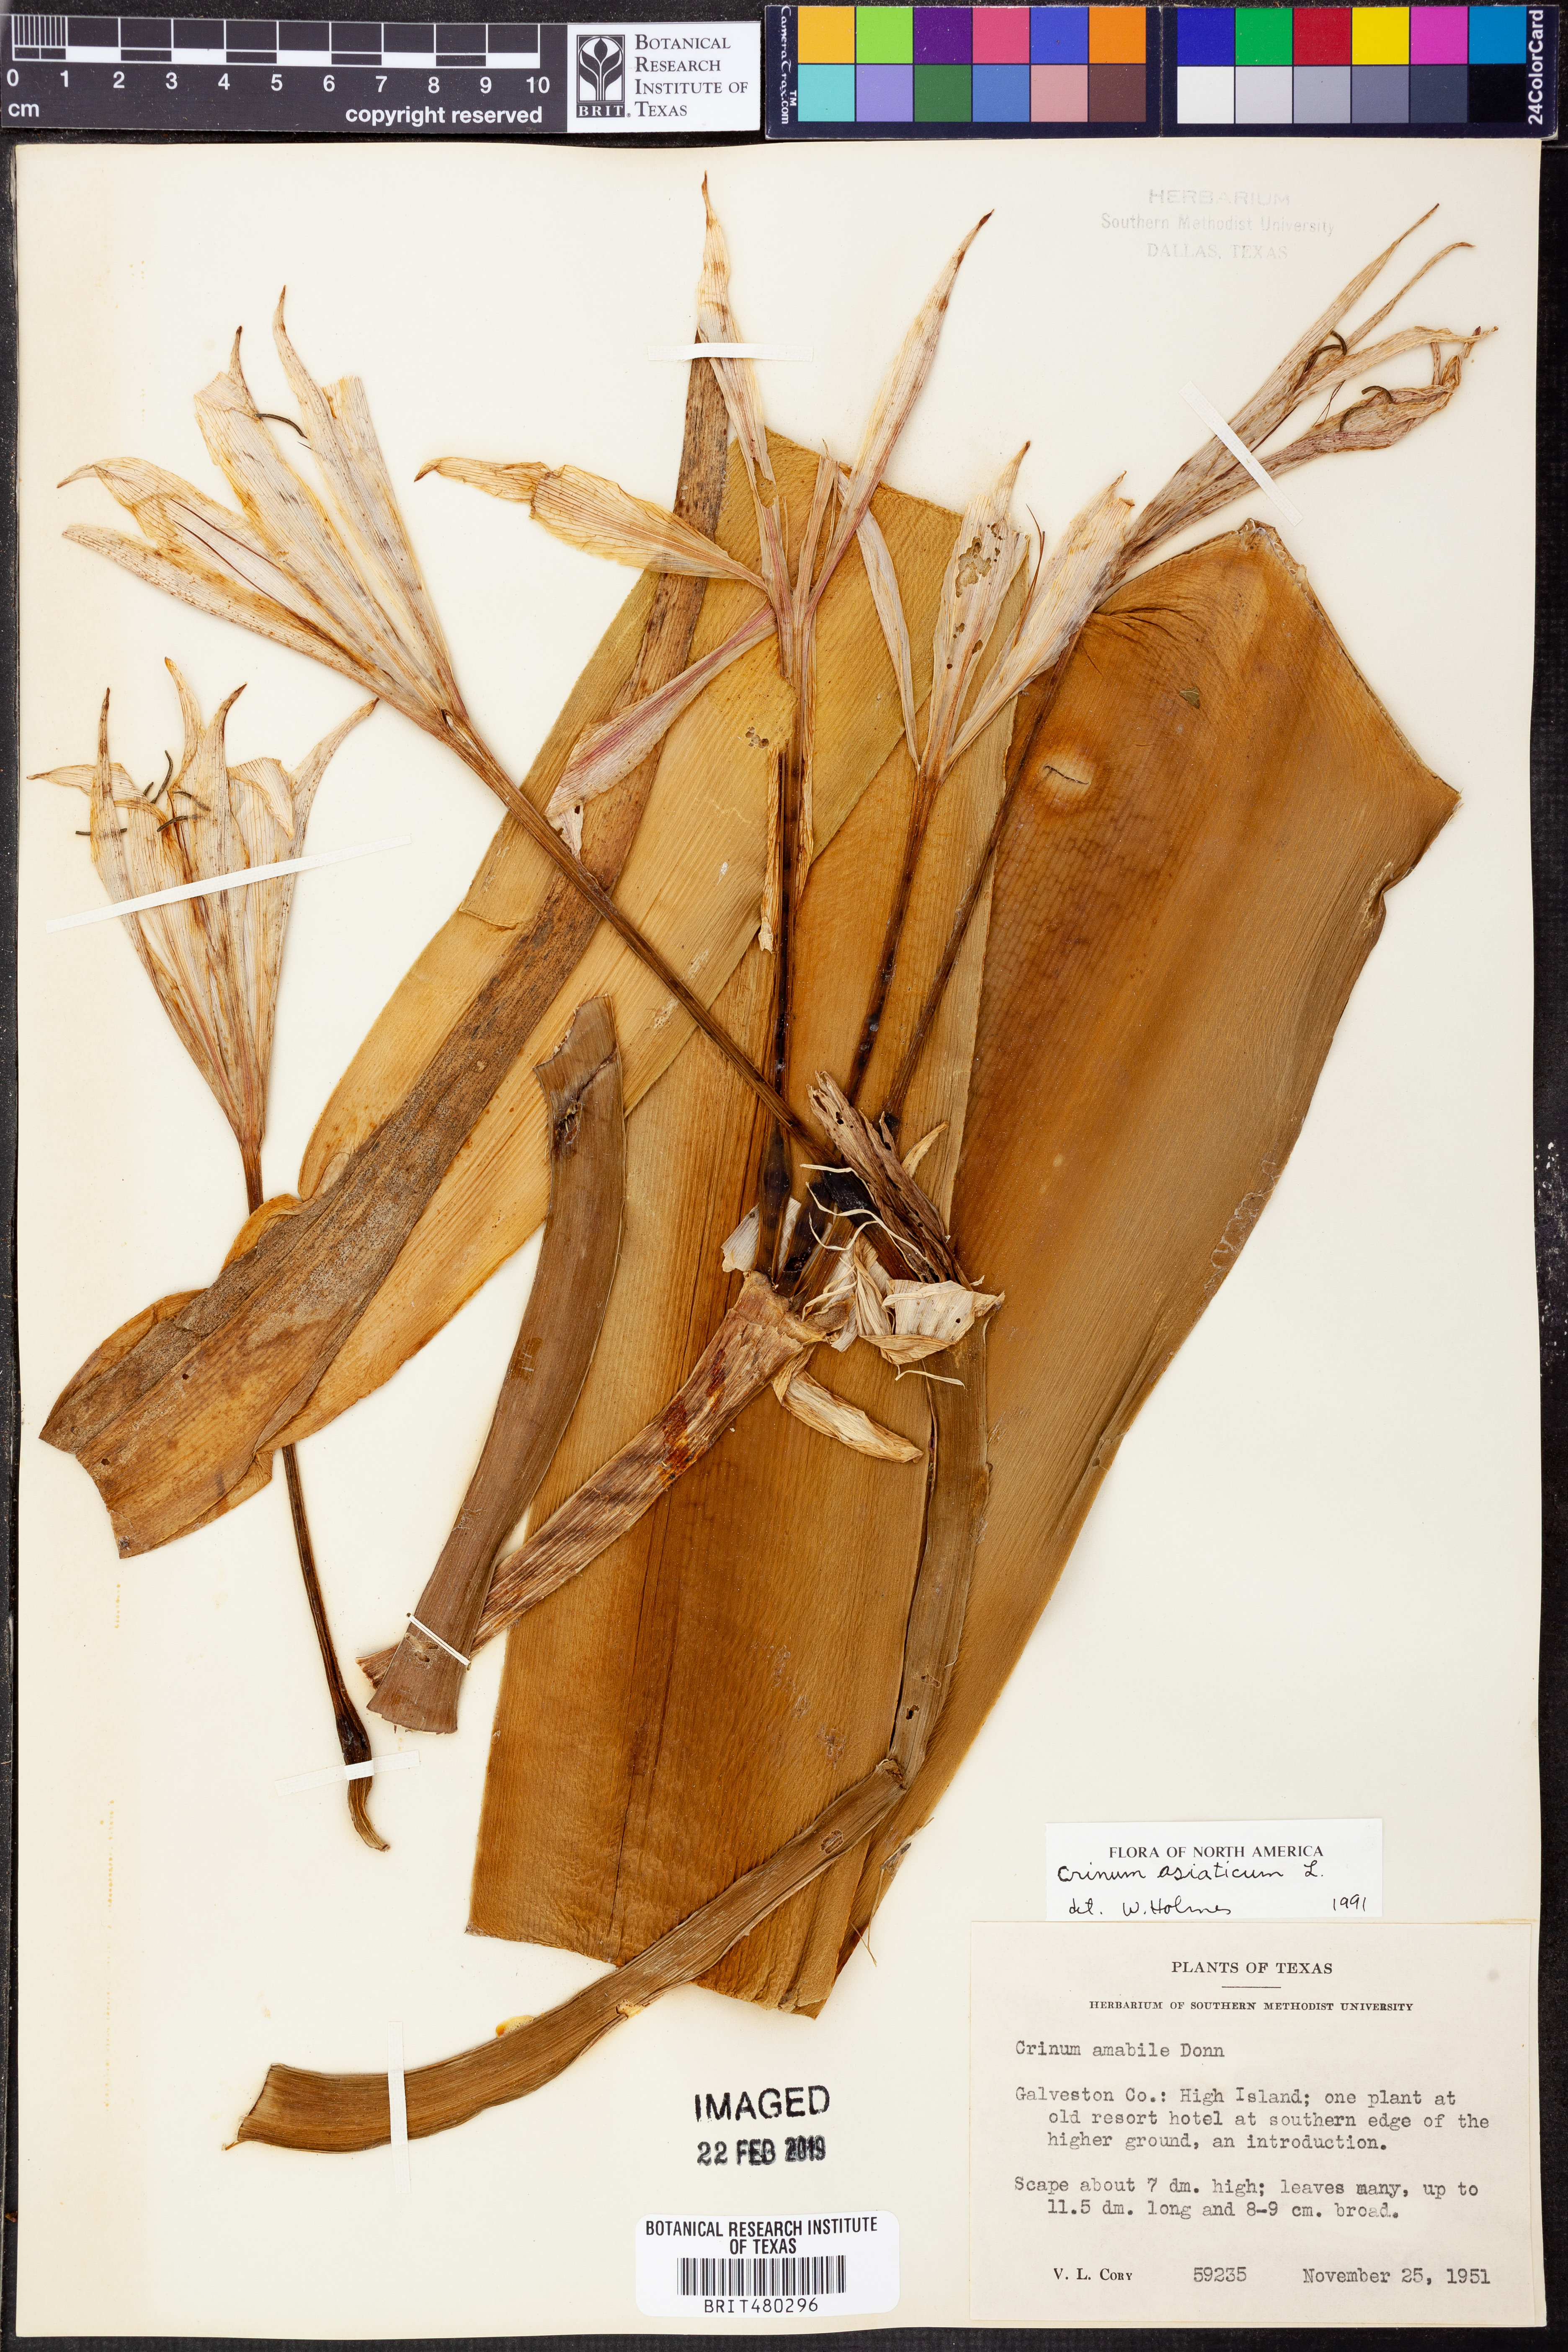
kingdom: Plantae
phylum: Tracheophyta
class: Liliopsida
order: Asparagales
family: Amaryllidaceae
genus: Crinum
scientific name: Crinum asiaticum
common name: Poisonbulb
